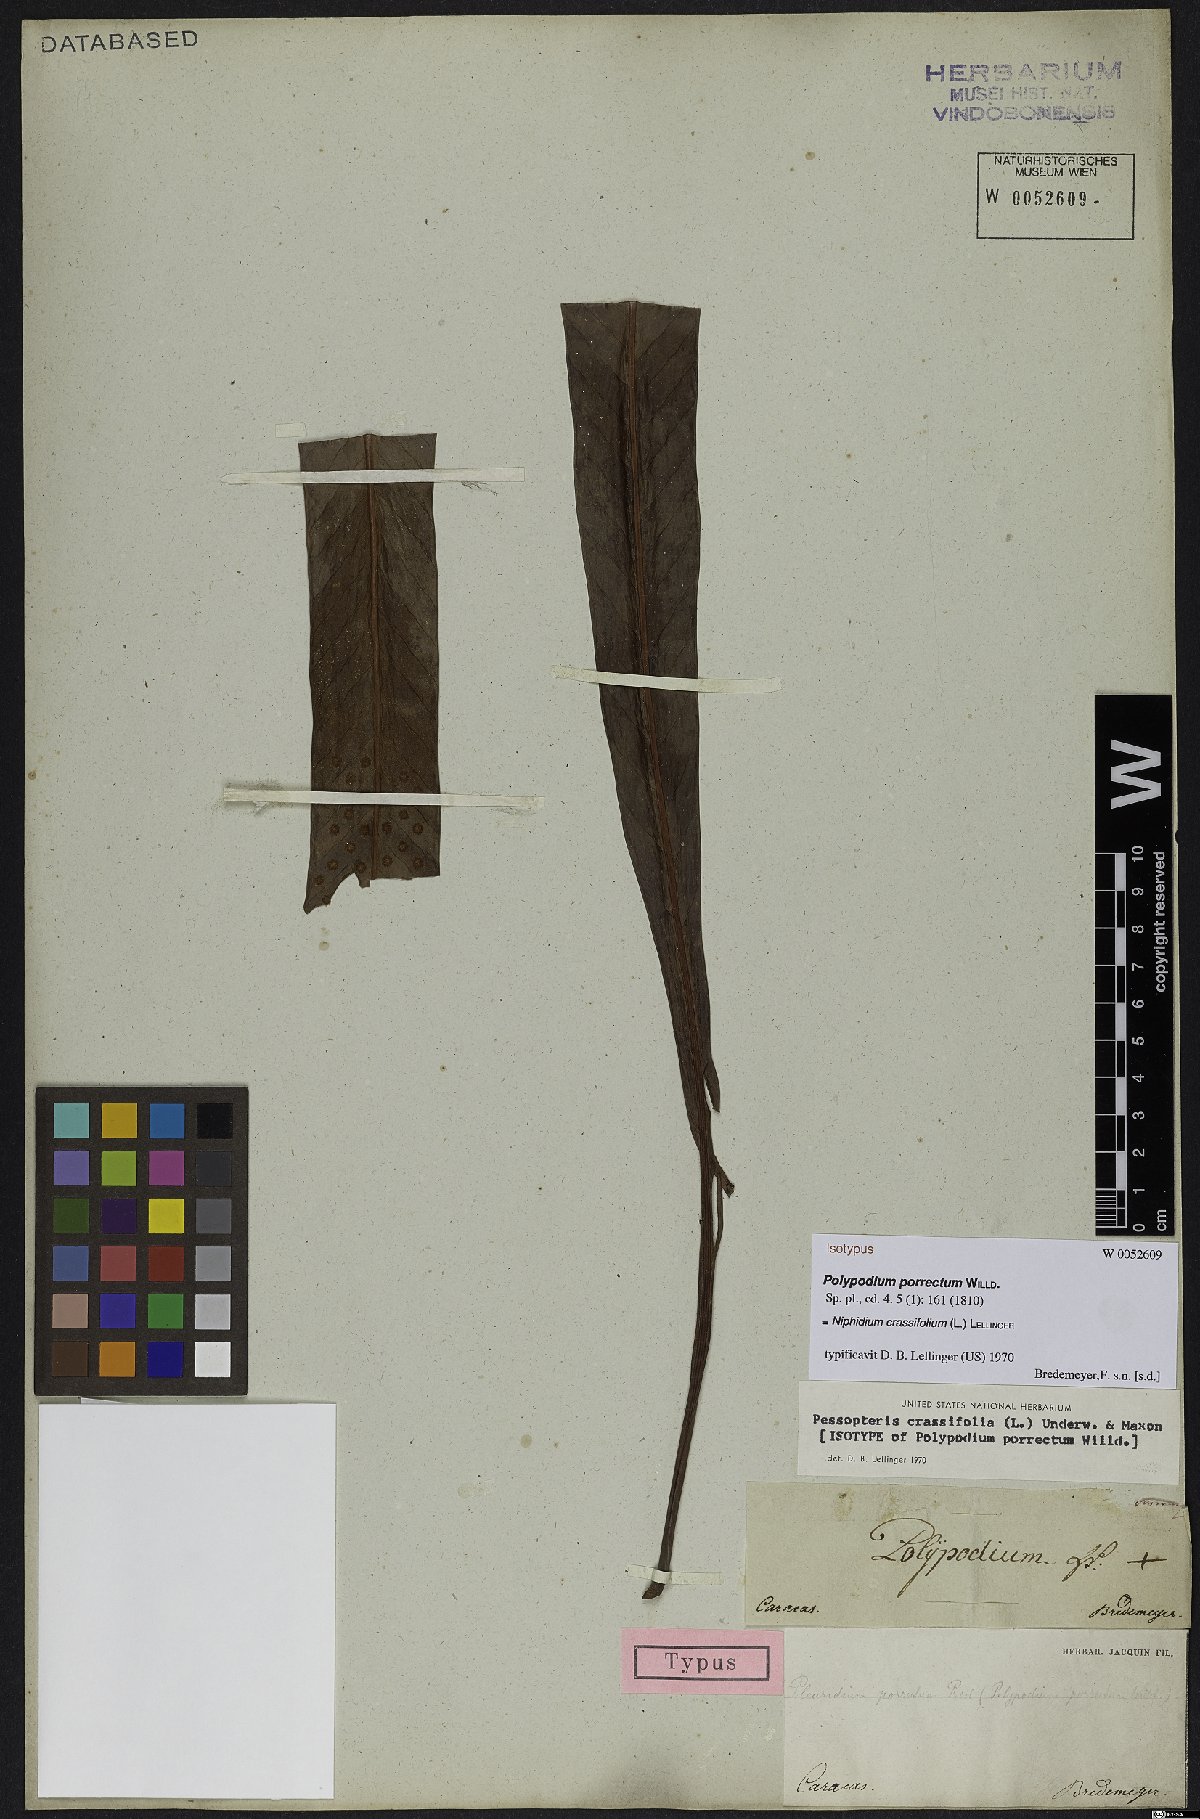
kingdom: Plantae
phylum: Tracheophyta
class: Polypodiopsida
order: Polypodiales
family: Polypodiaceae
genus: Niphidium
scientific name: Niphidium crassifolium
